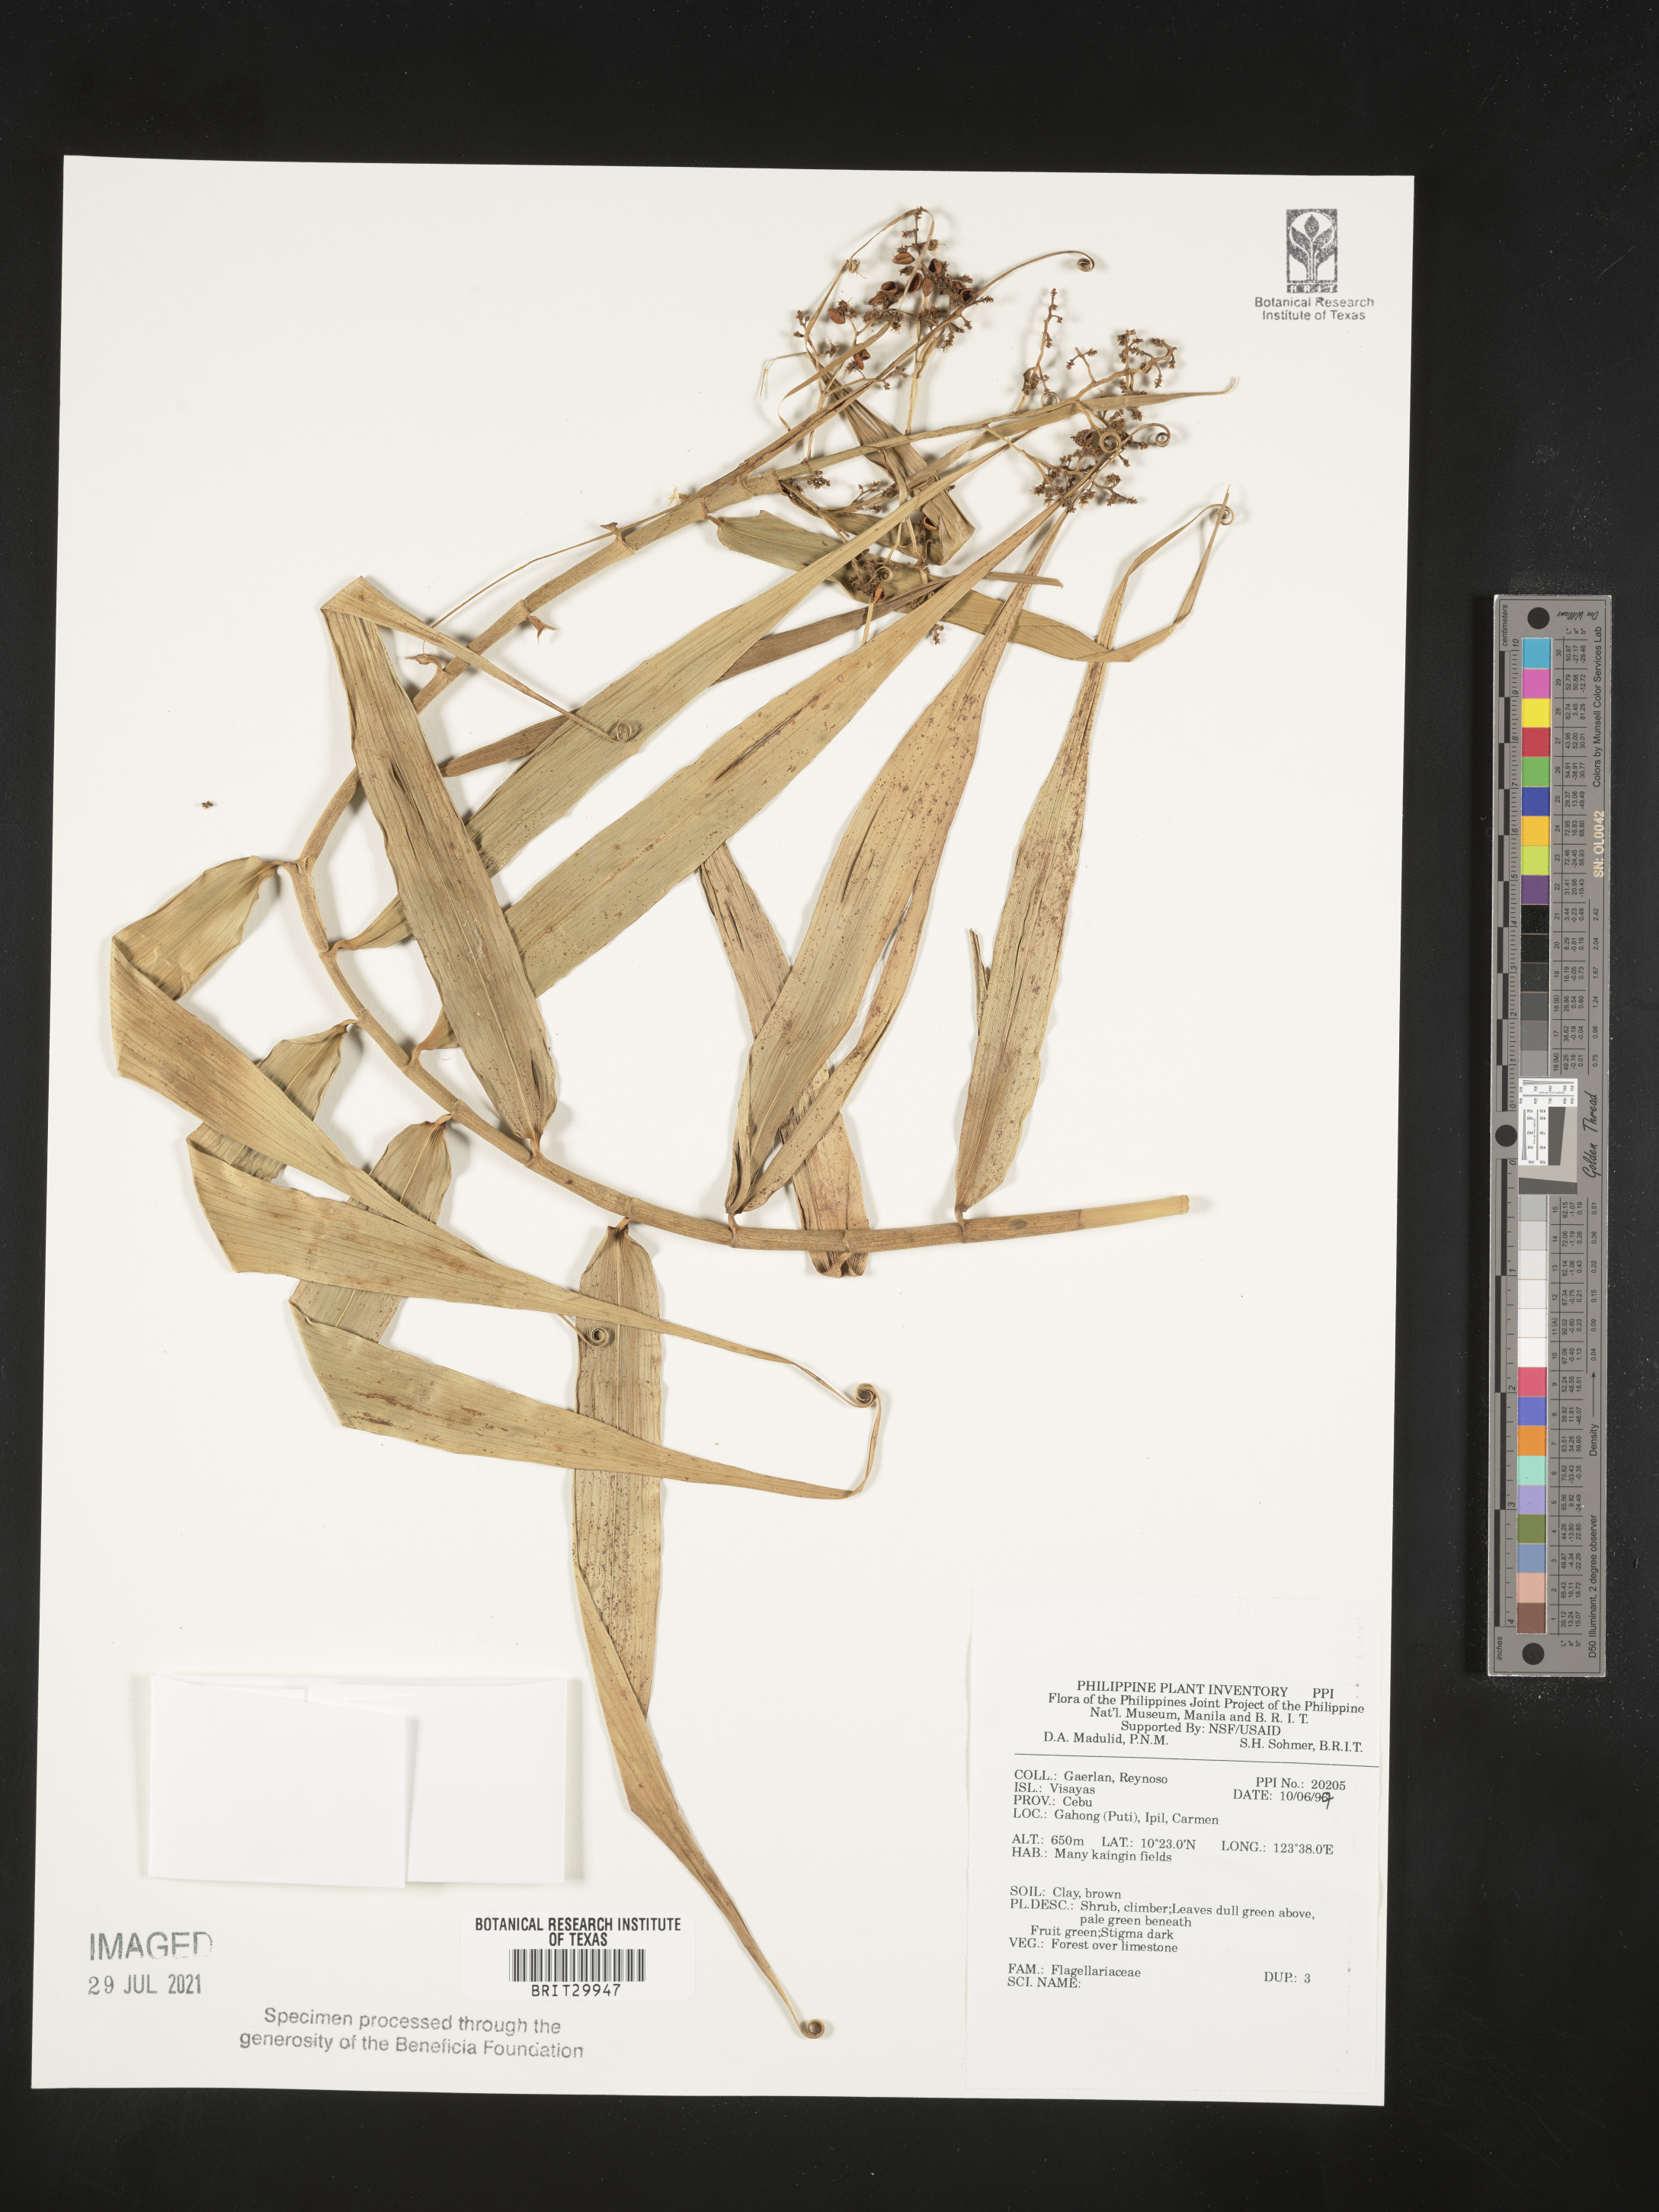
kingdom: Plantae
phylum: Tracheophyta
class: Liliopsida
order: Poales
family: Flagellariaceae
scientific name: Flagellariaceae
